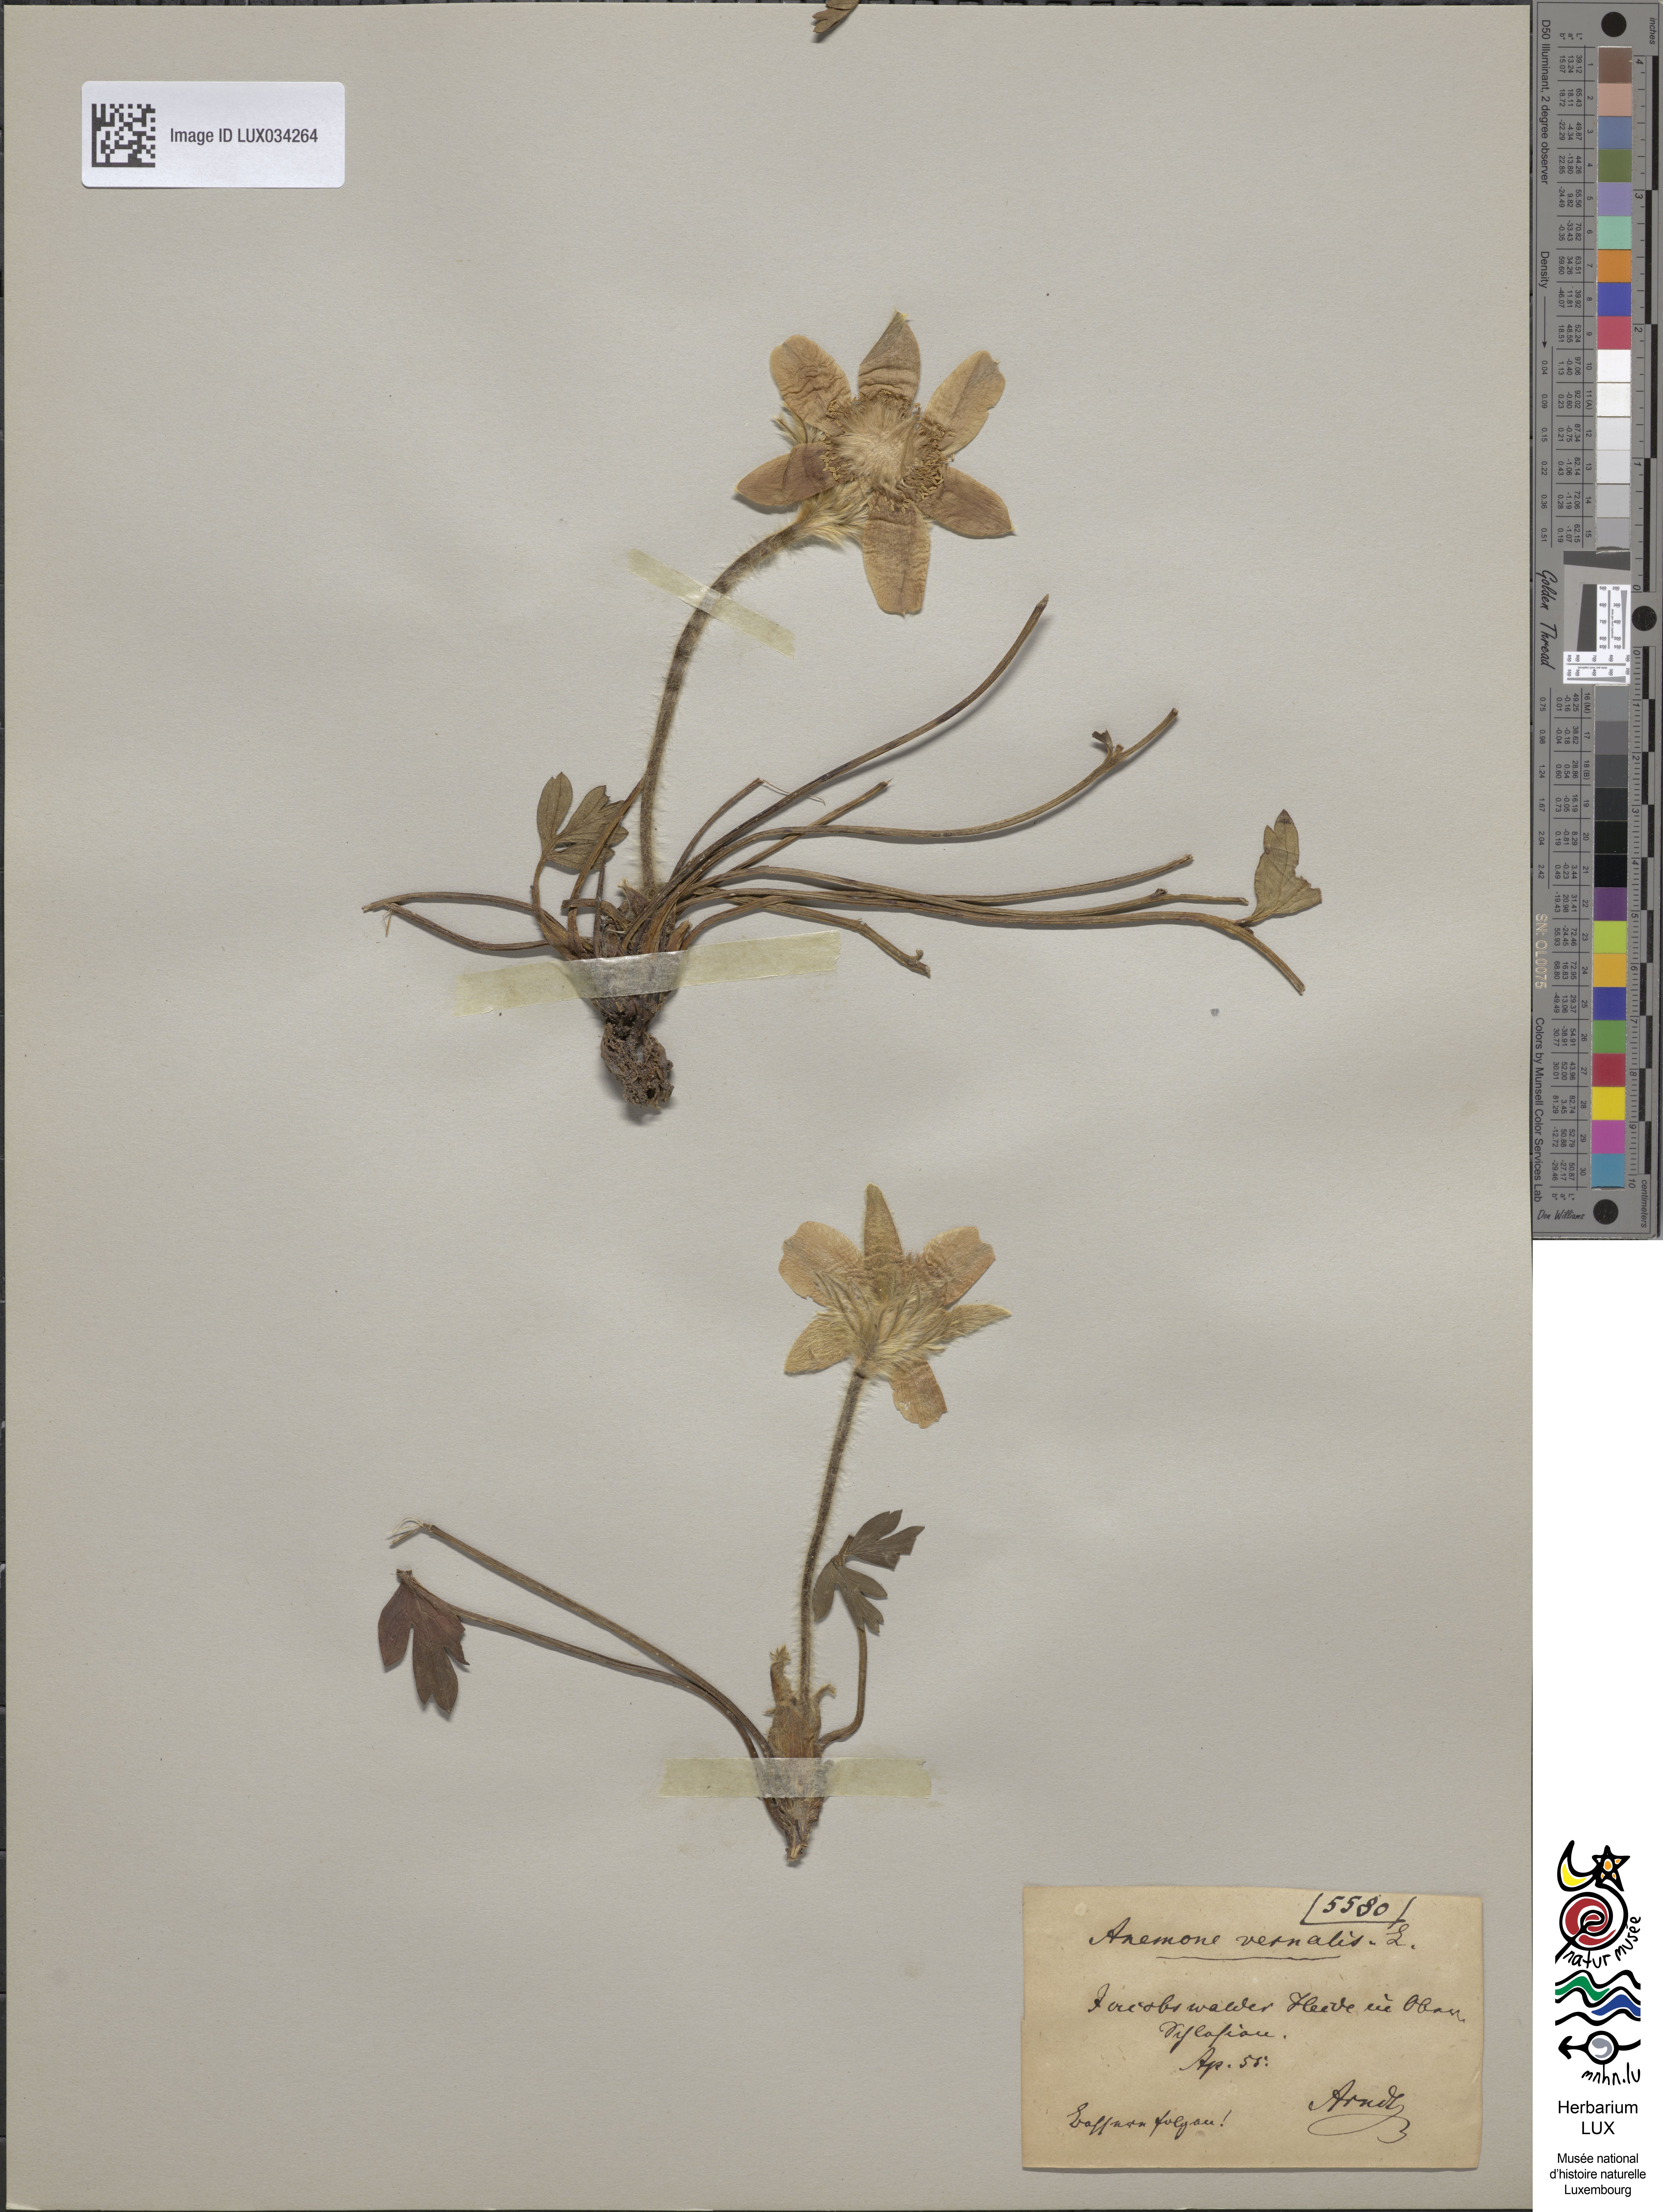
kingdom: Plantae
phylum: Tracheophyta
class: Magnoliopsida
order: Ranunculales
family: Ranunculaceae
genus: Pulsatilla
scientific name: Pulsatilla vernalis
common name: Spring pasque flower
